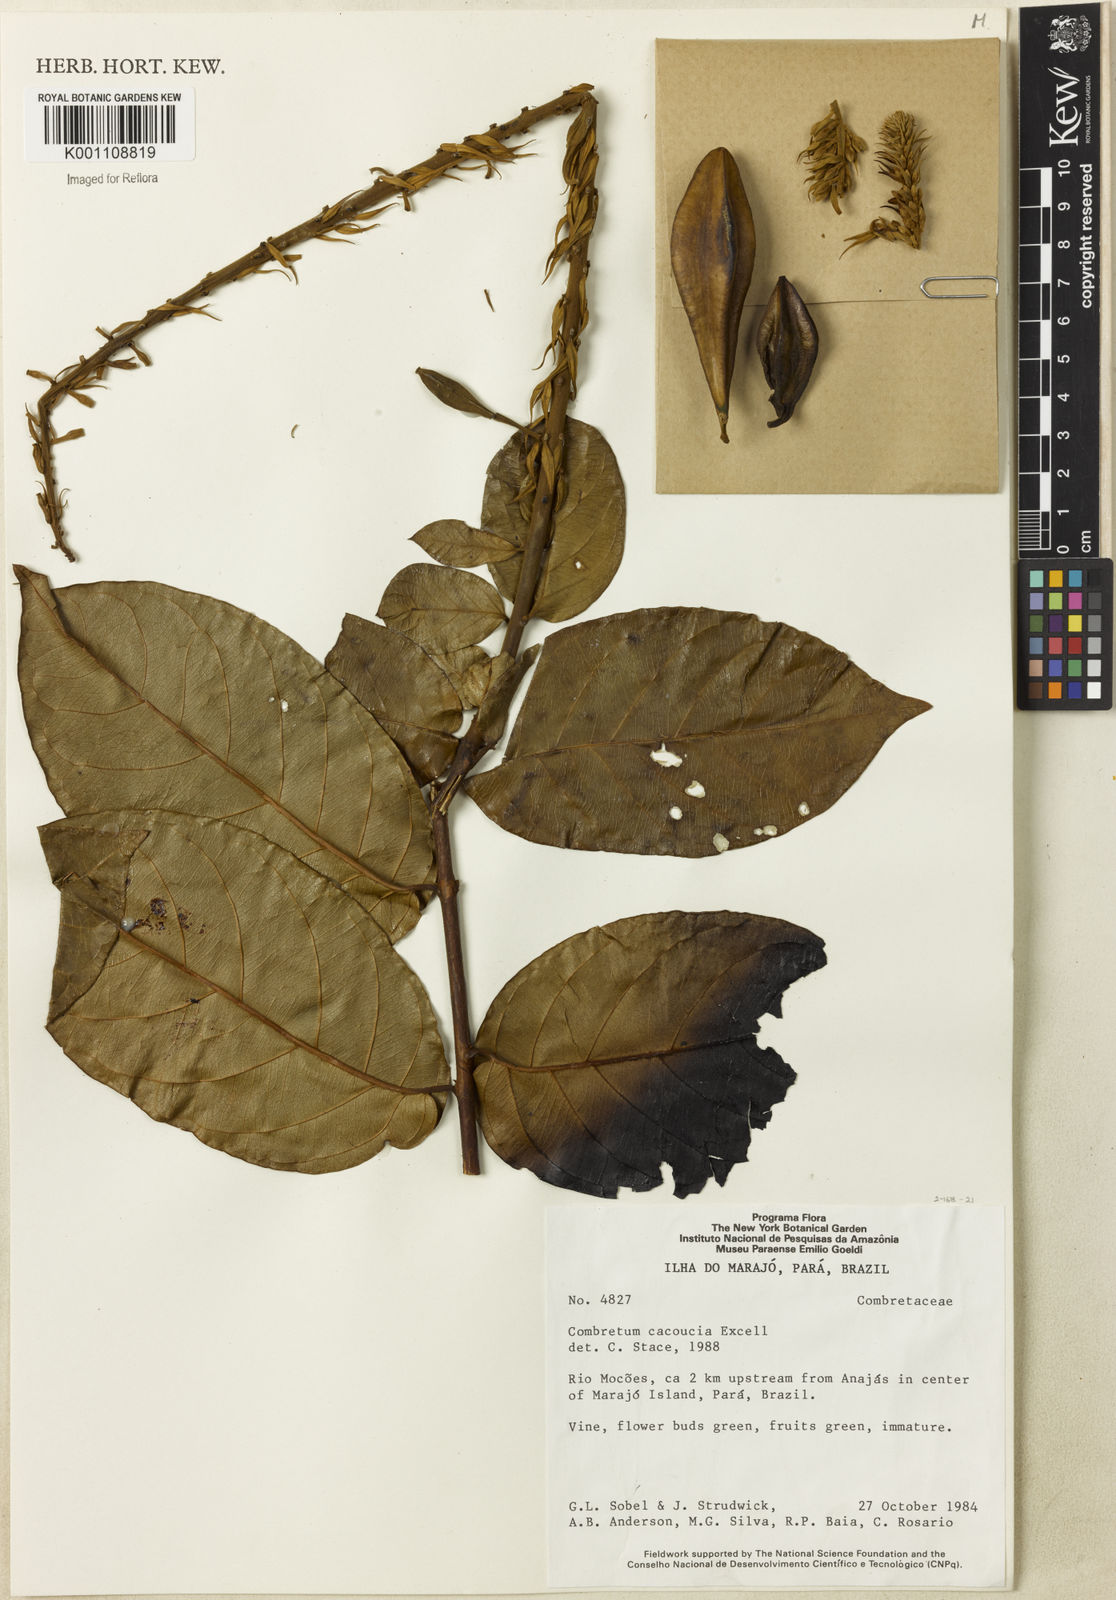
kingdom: Plantae
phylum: Tracheophyta
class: Magnoliopsida
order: Myrtales
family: Combretaceae
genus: Combretum
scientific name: Combretum
